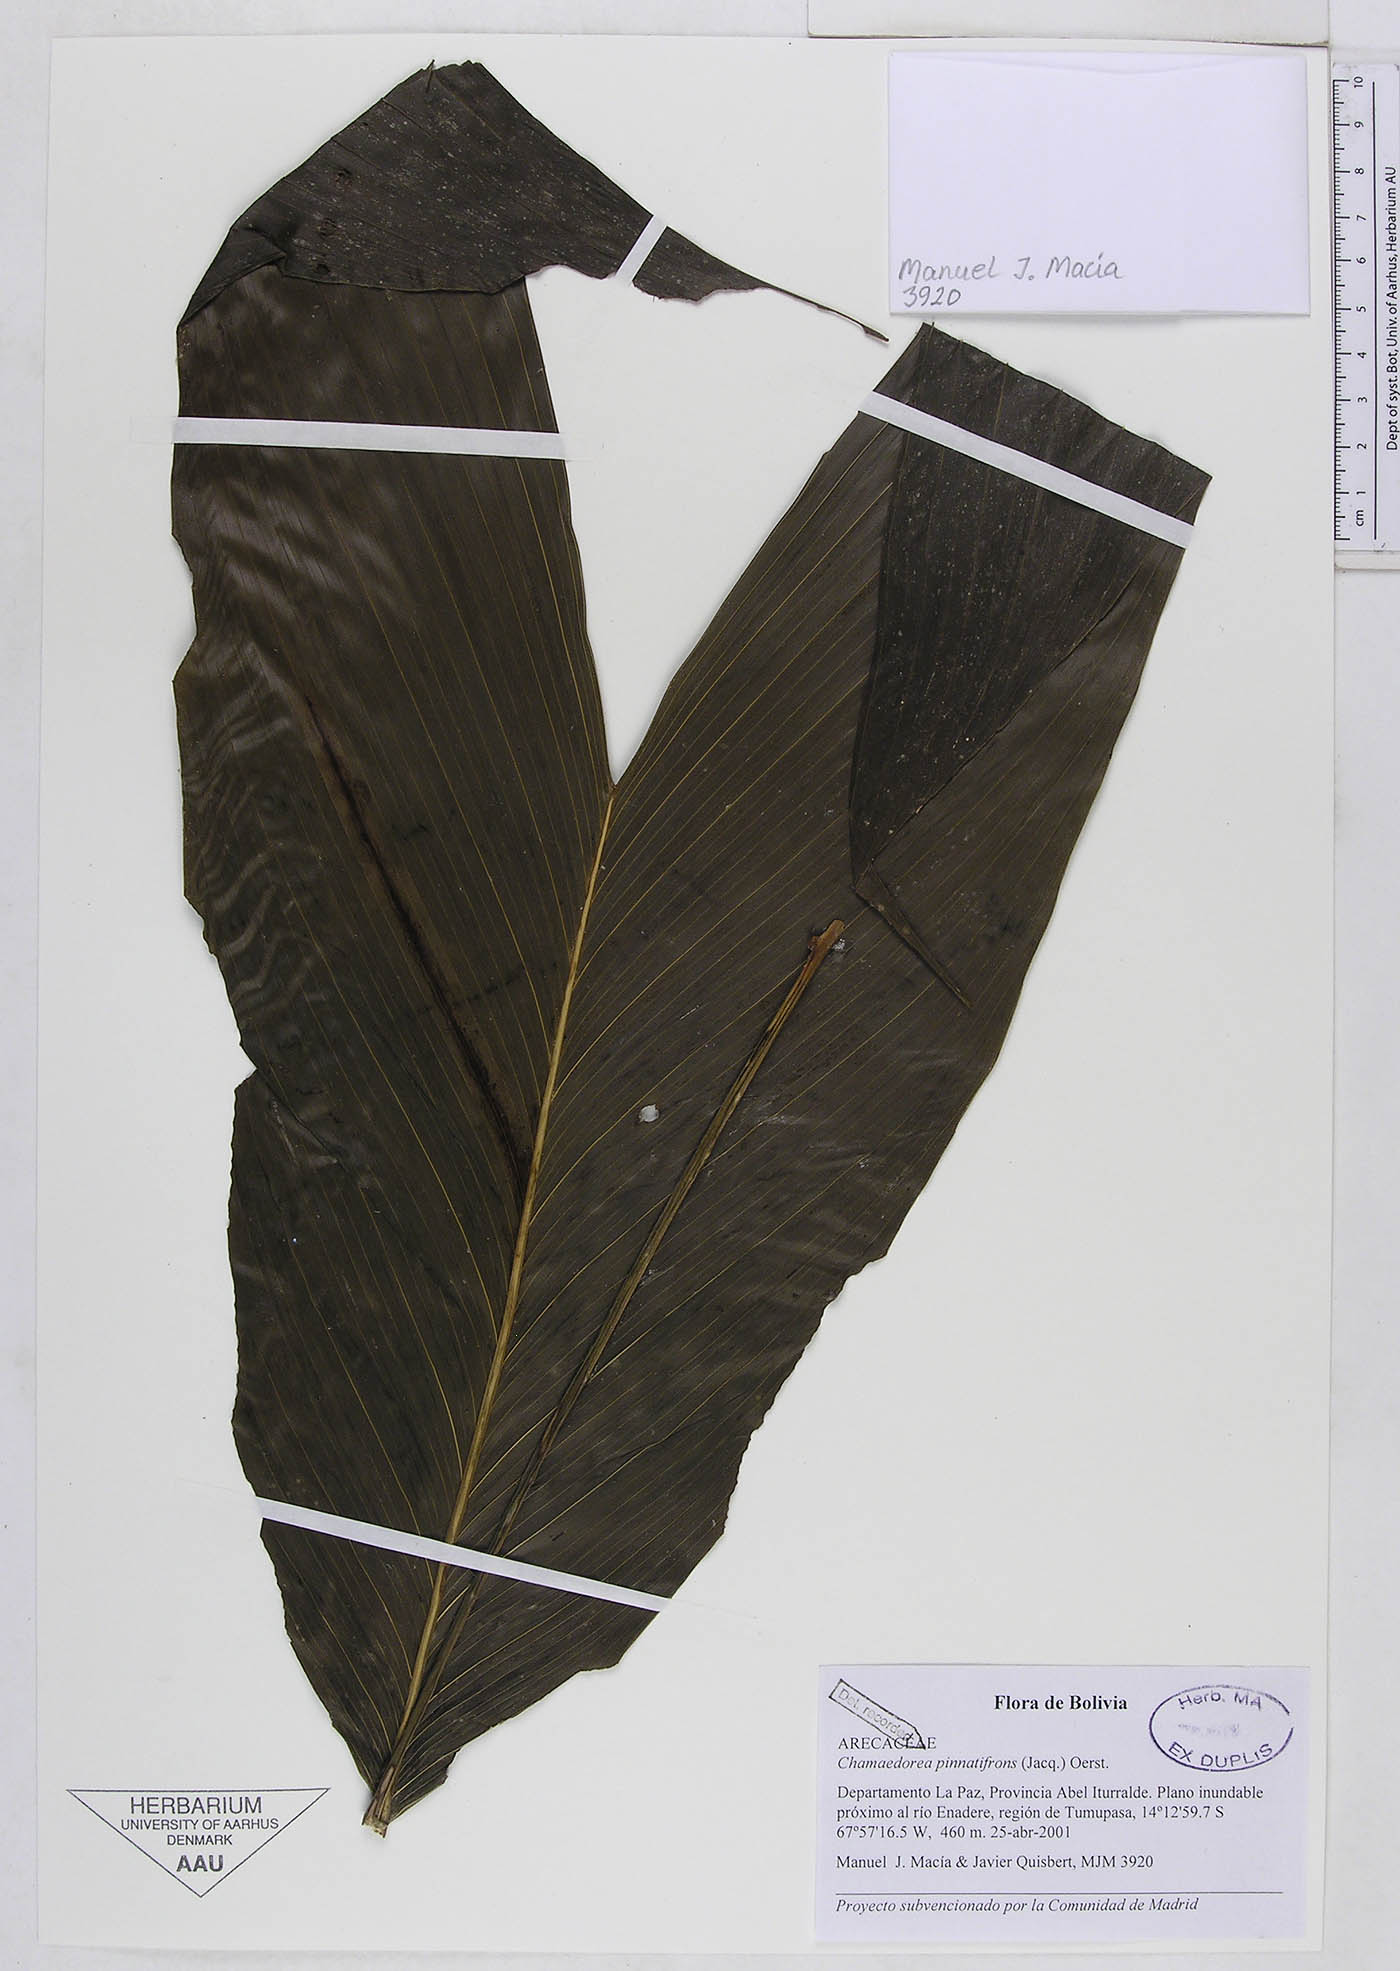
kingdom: Plantae
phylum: Tracheophyta
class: Liliopsida
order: Arecales
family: Arecaceae
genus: Chamaedorea
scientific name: Chamaedorea pinnatifrons
